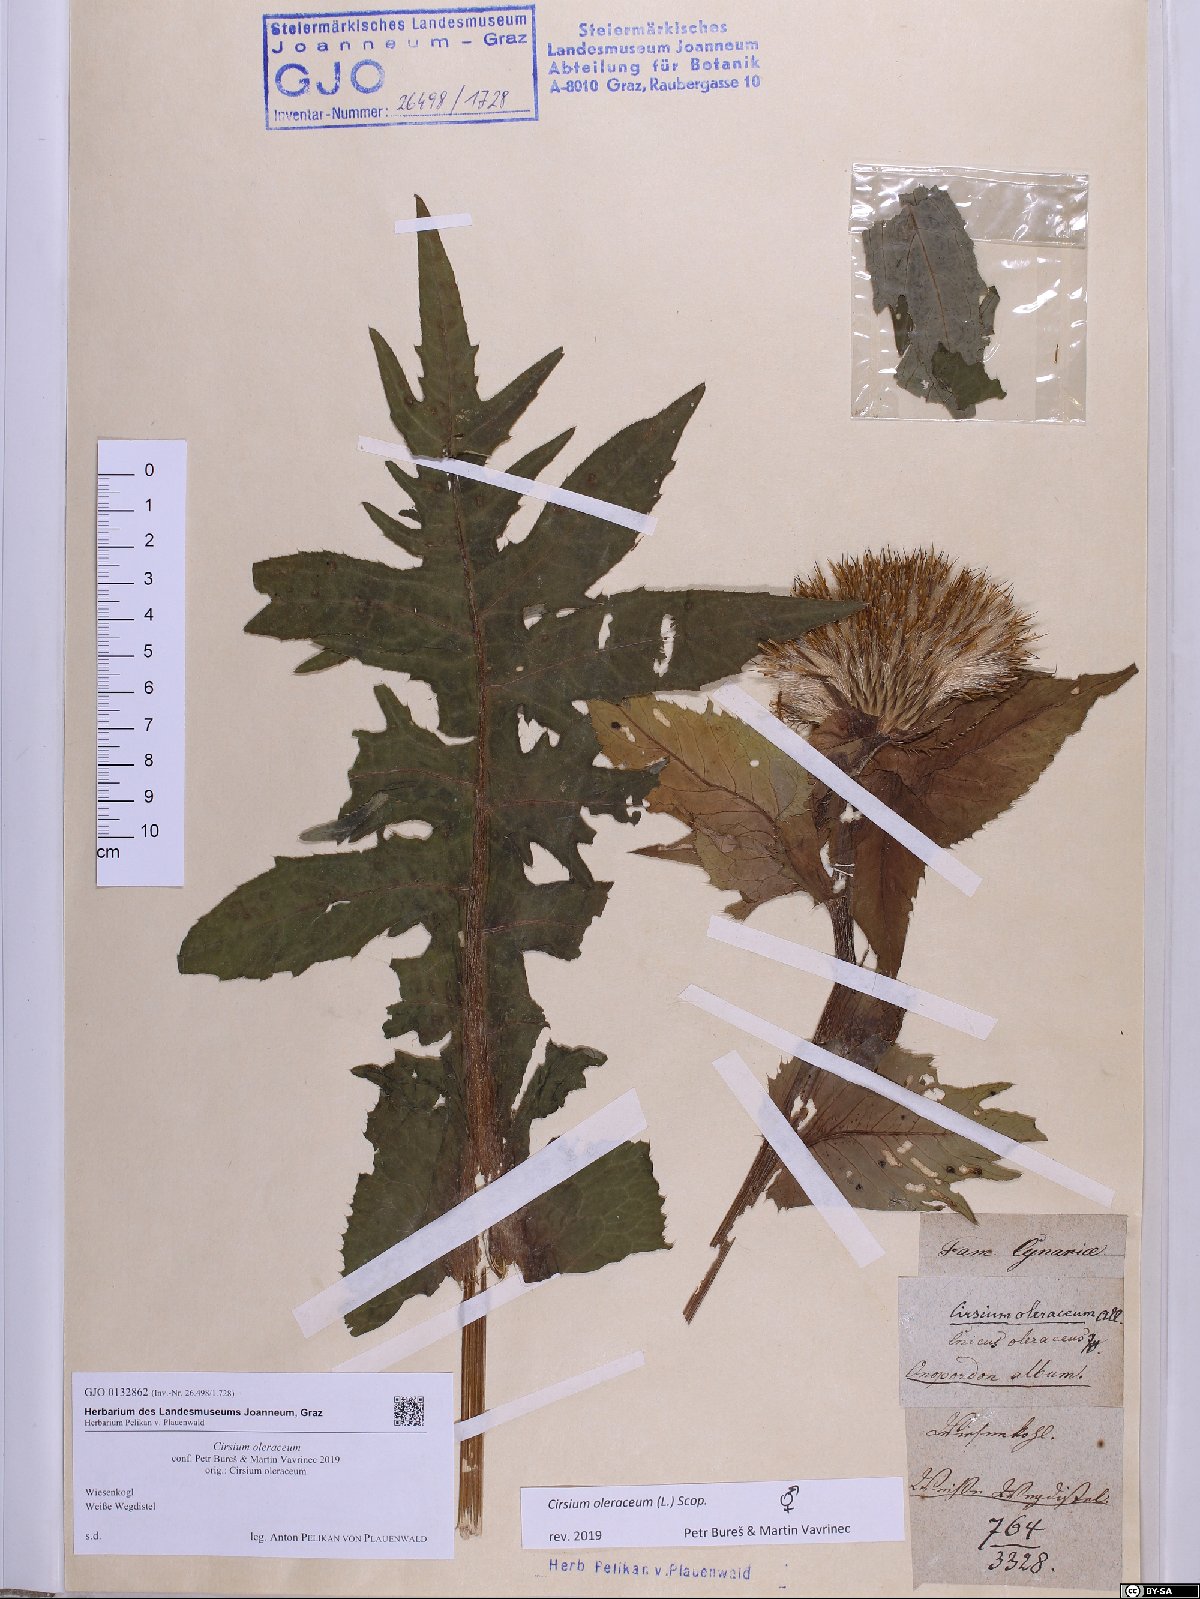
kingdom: Plantae
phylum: Tracheophyta
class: Magnoliopsida
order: Asterales
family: Asteraceae
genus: Cirsium
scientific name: Cirsium oleraceum
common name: Cabbage thistle
